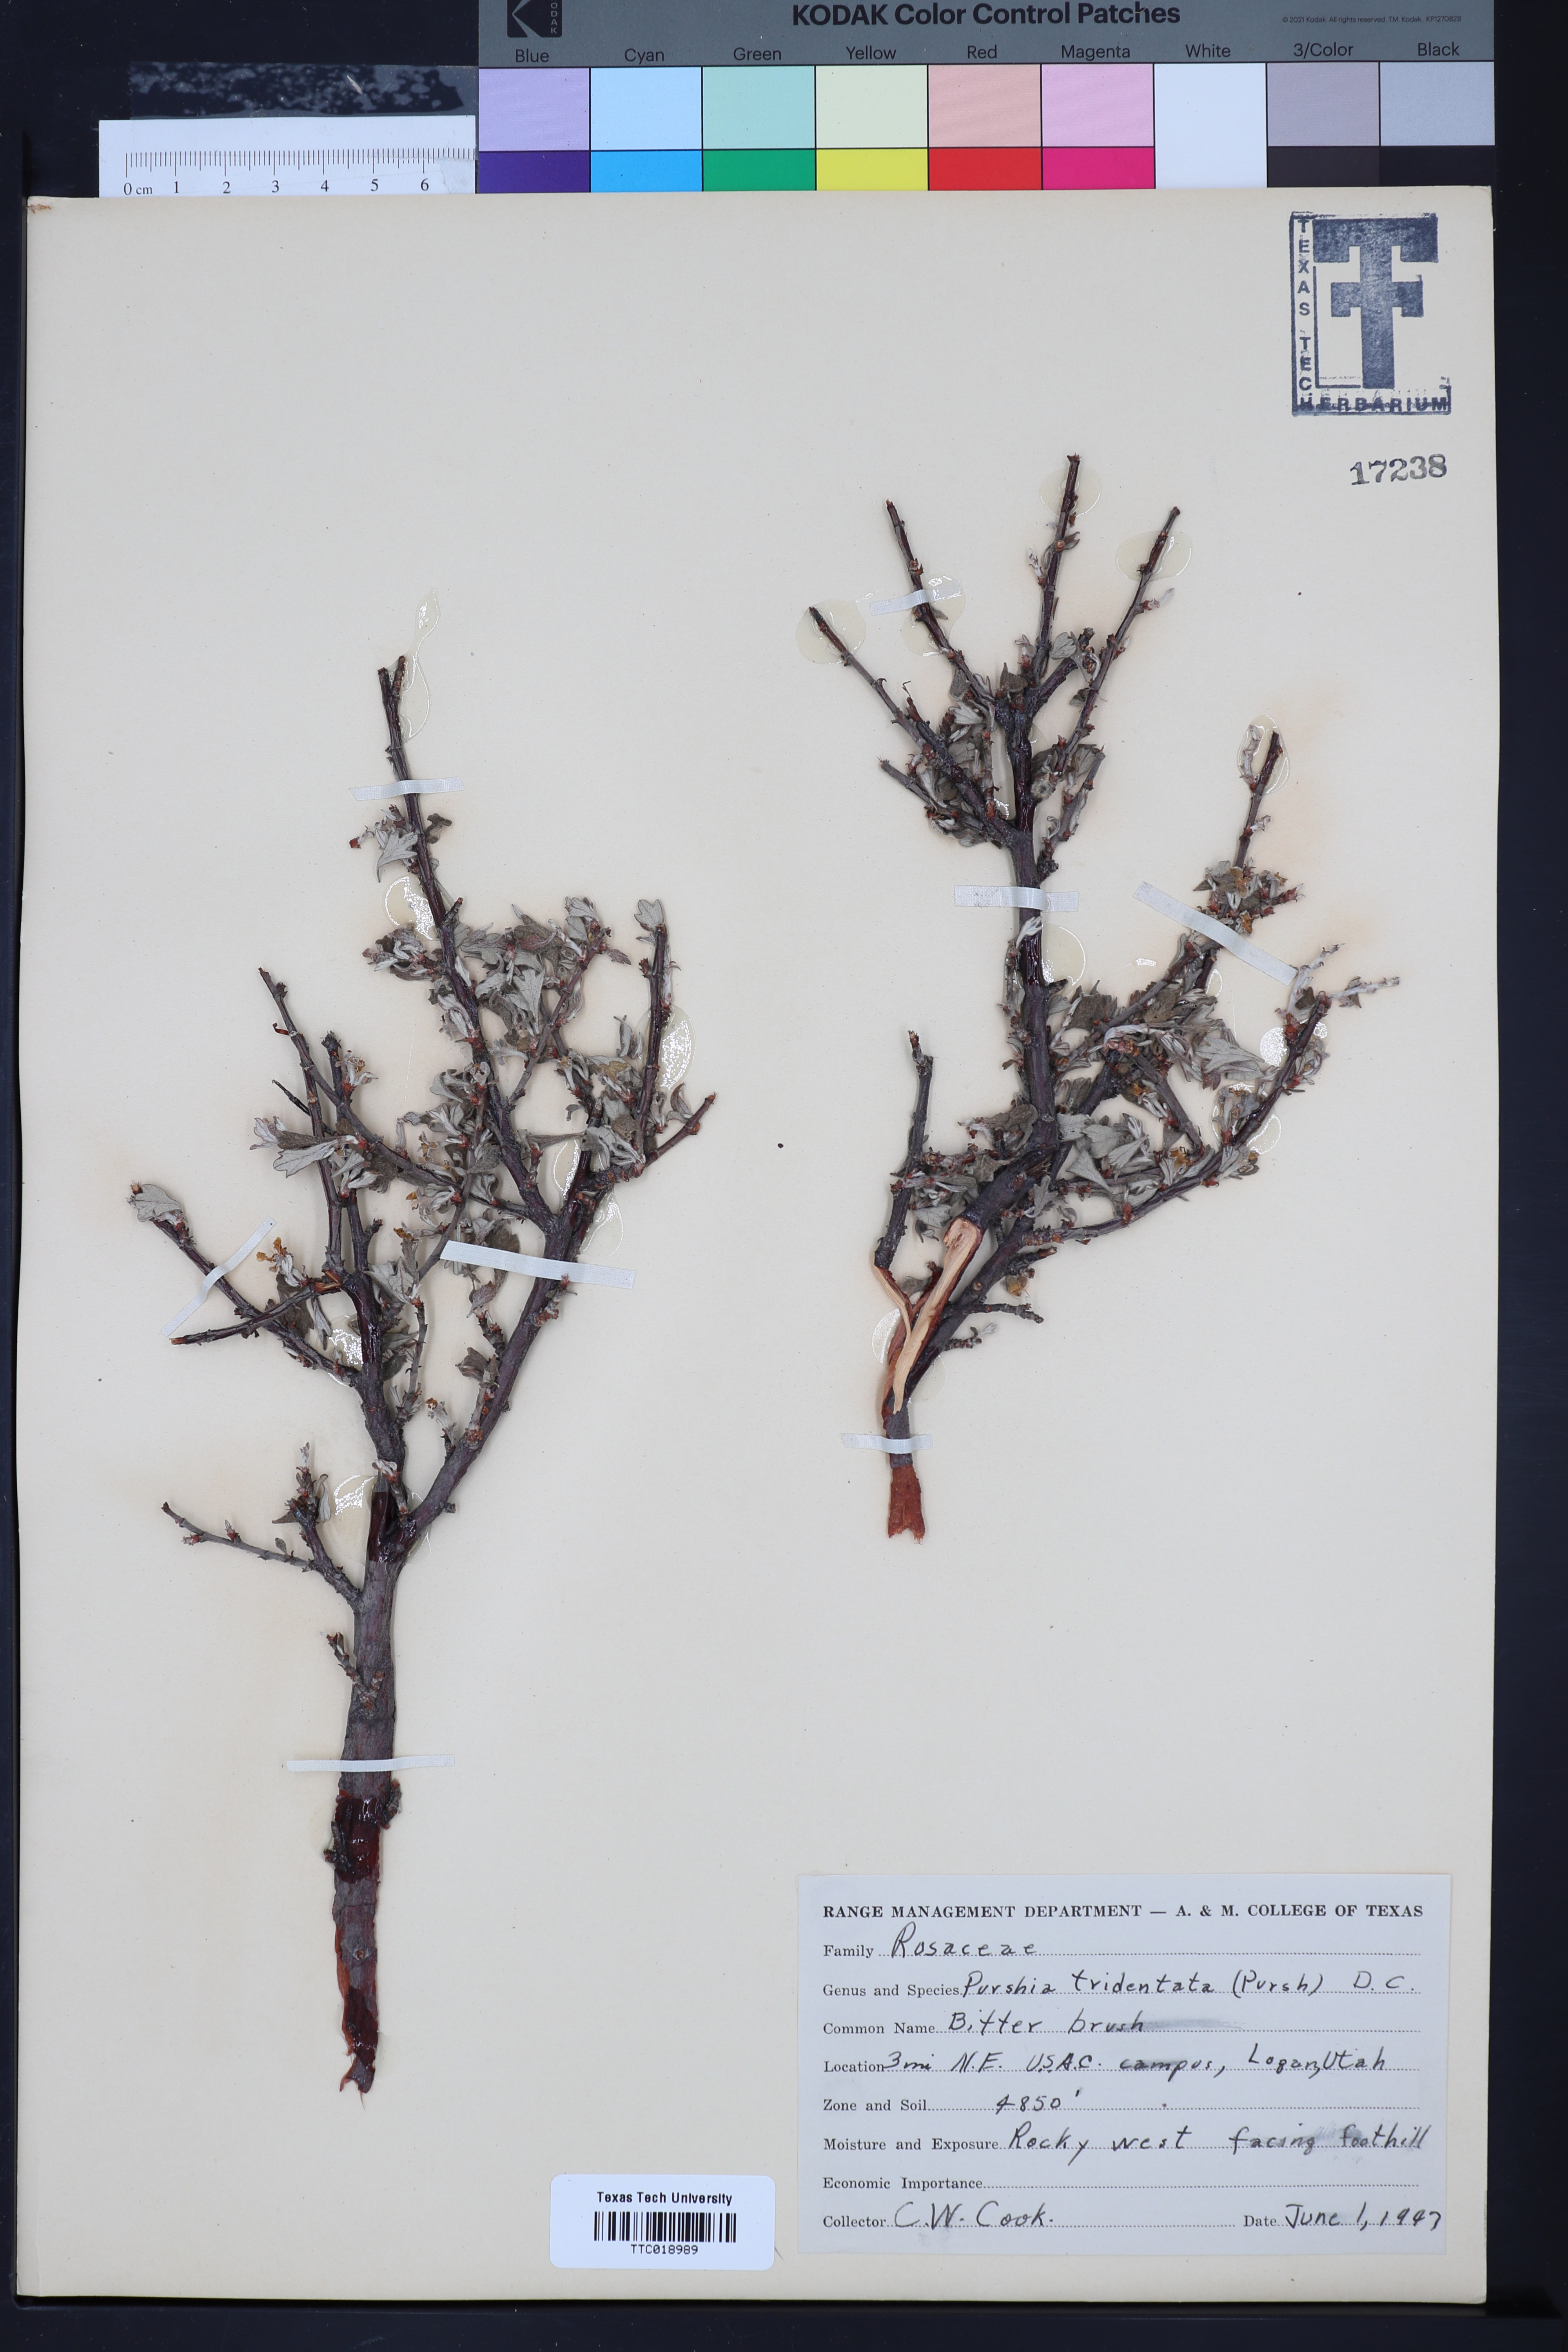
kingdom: Plantae
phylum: Tracheophyta
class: Magnoliopsida
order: Rosales
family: Rosaceae
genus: Purshia
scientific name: Purshia tridentata
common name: Antelope bitterbrush
